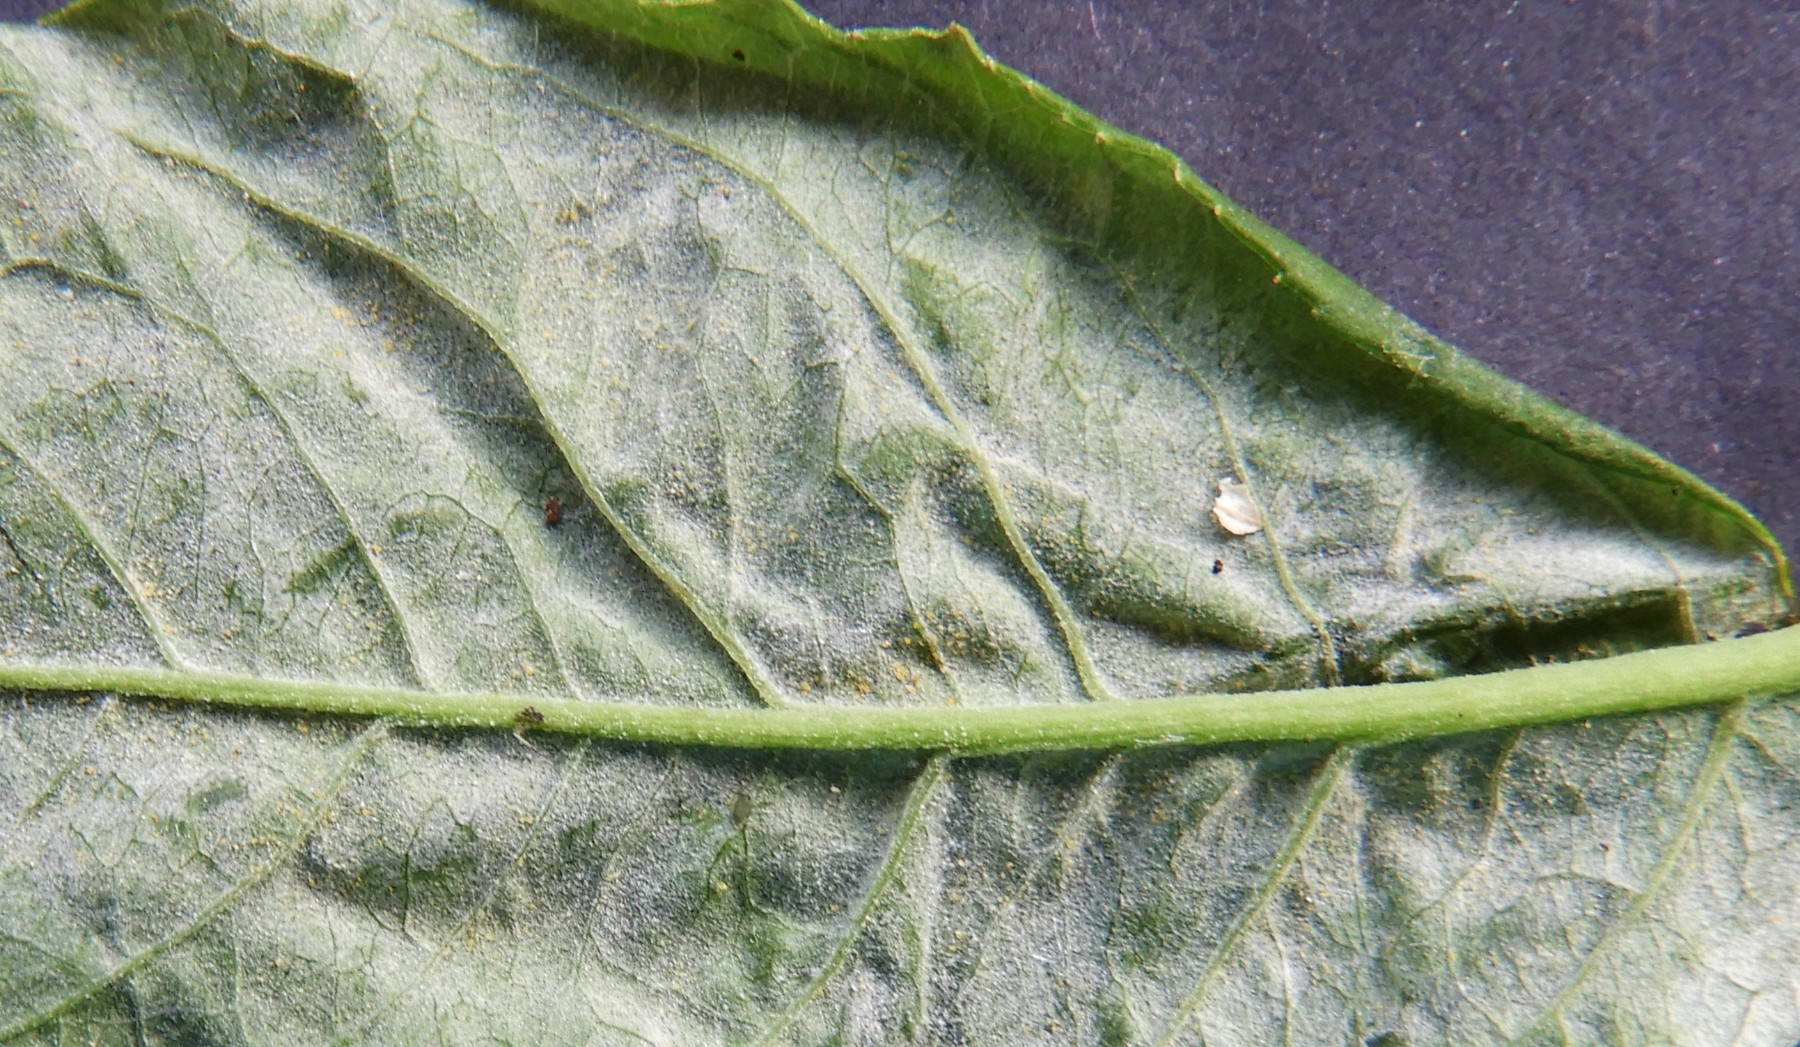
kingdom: Fungi
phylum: Ascomycota
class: Leotiomycetes
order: Helotiales
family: Erysiphaceae
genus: Erysiphe
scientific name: Erysiphe euonymi
